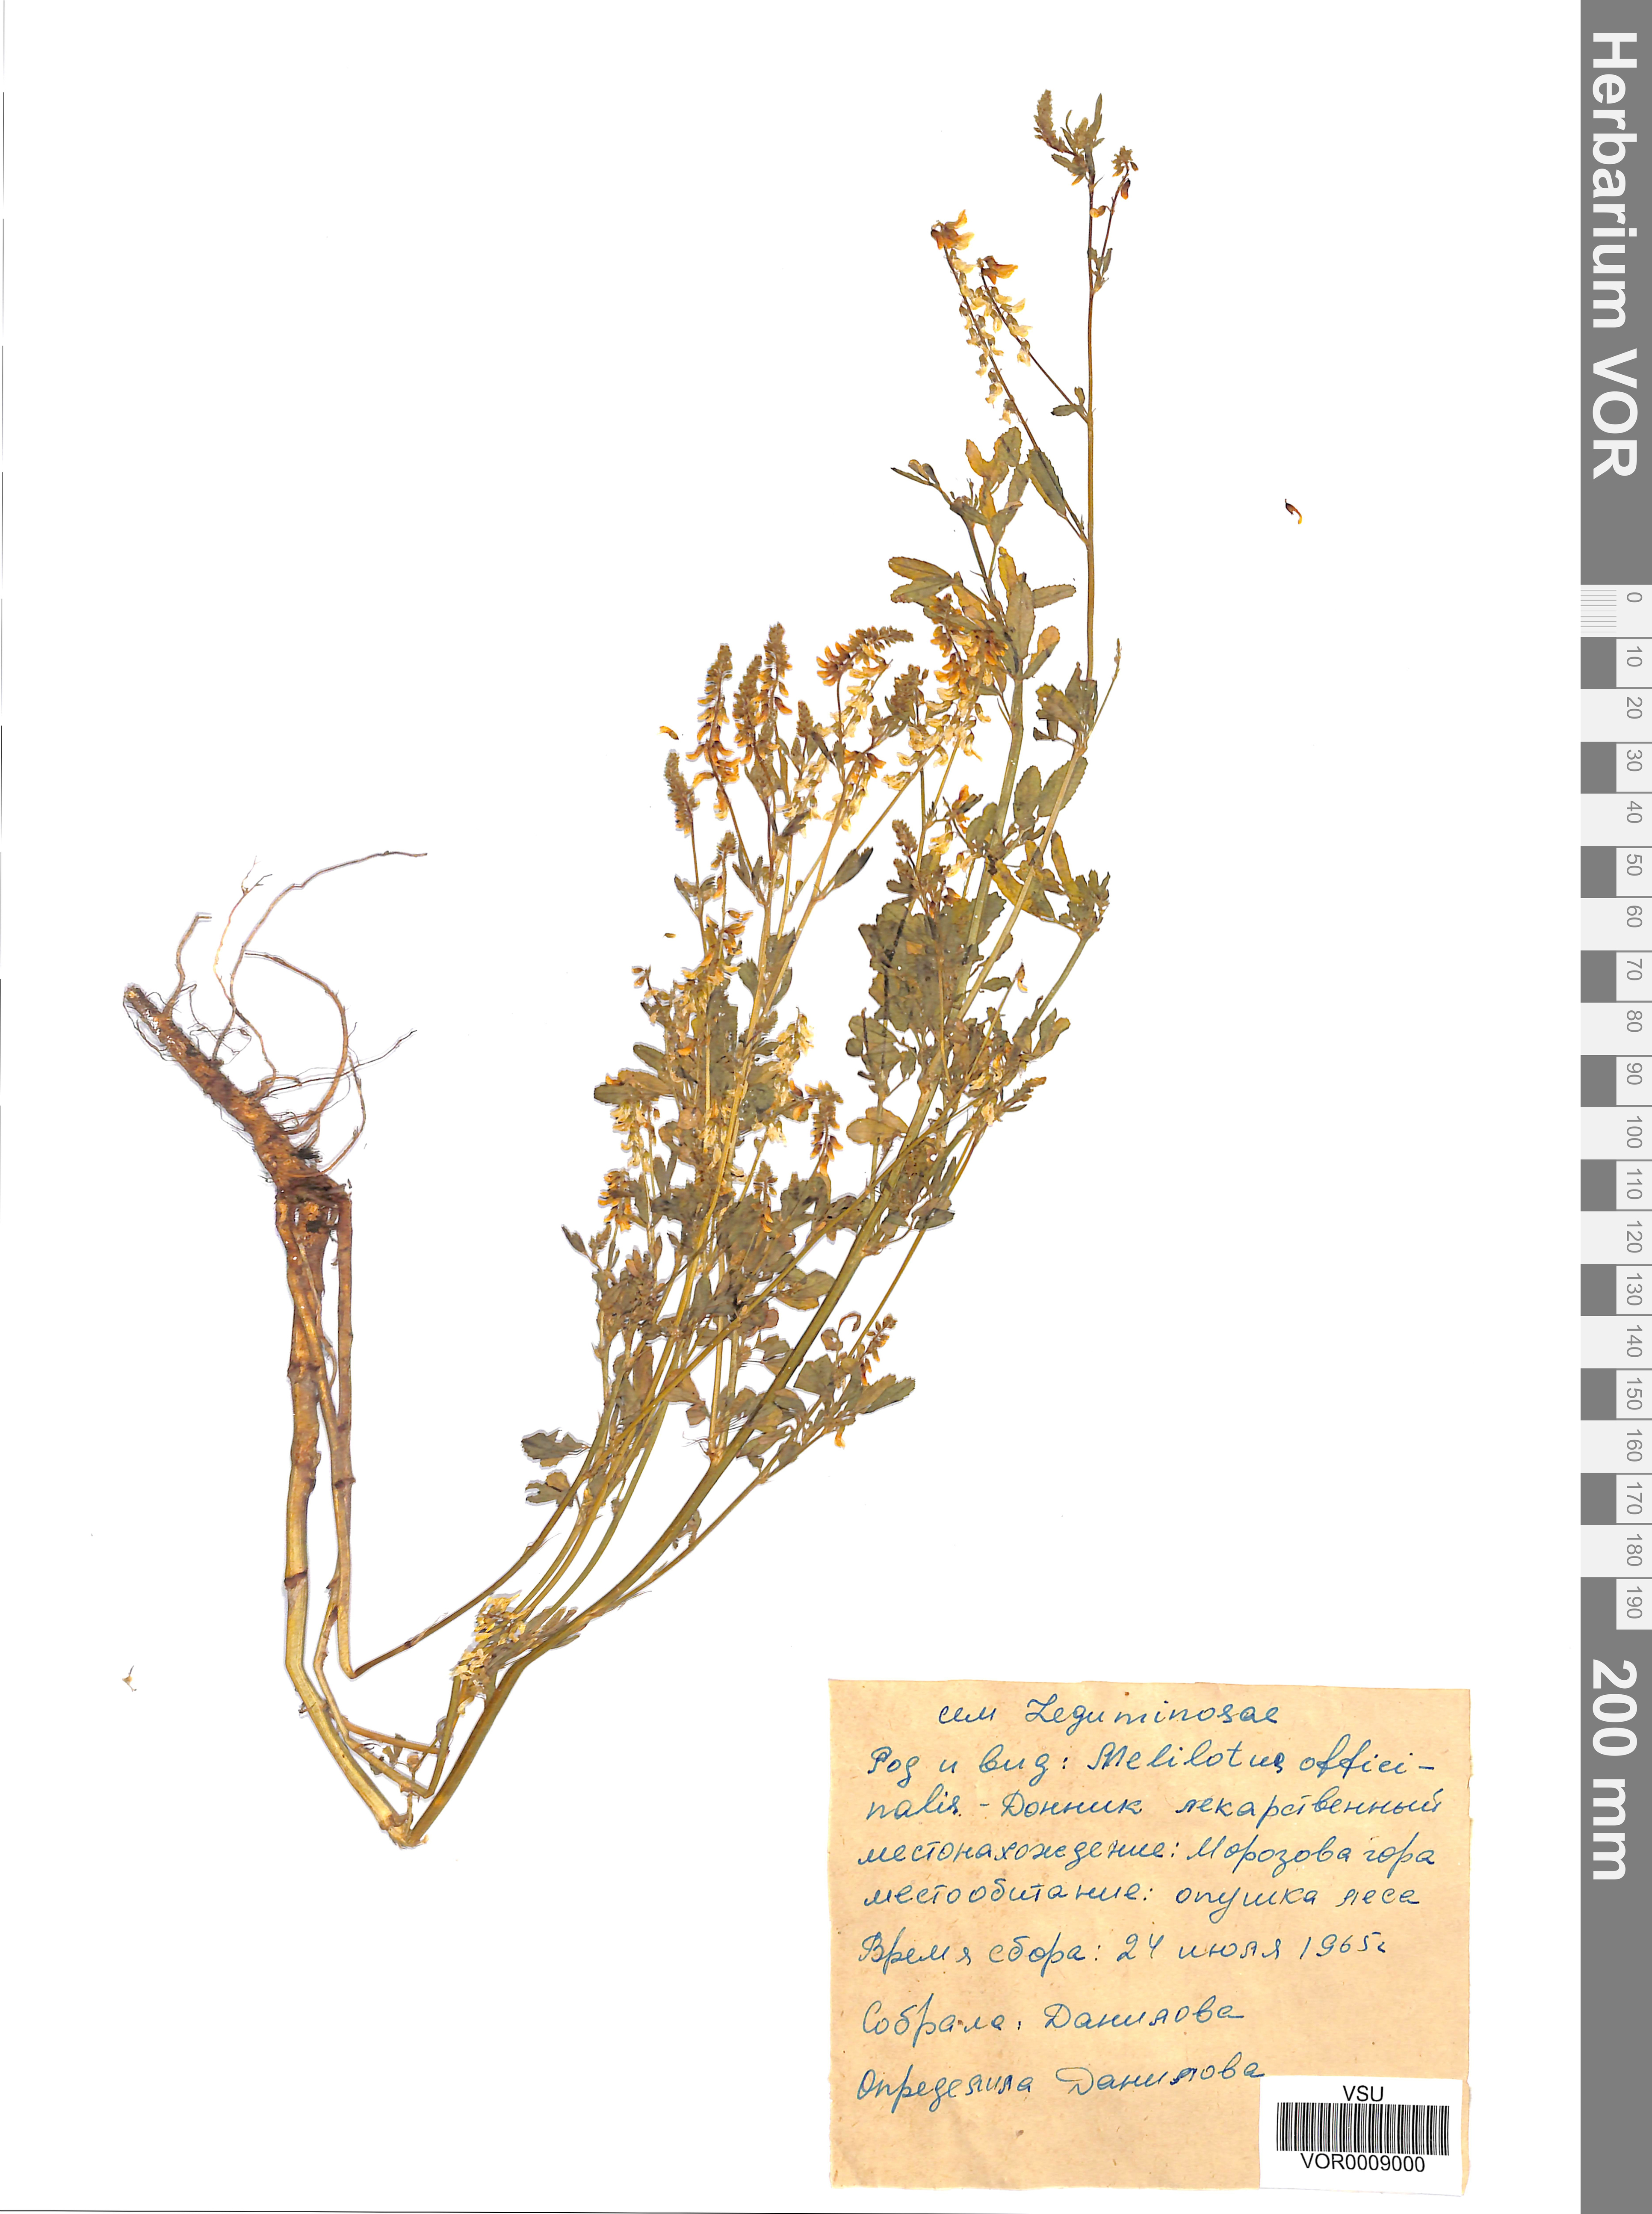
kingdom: Plantae
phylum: Tracheophyta
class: Magnoliopsida
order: Fabales
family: Fabaceae
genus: Melilotus
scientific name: Melilotus officinalis
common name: Sweetclover
